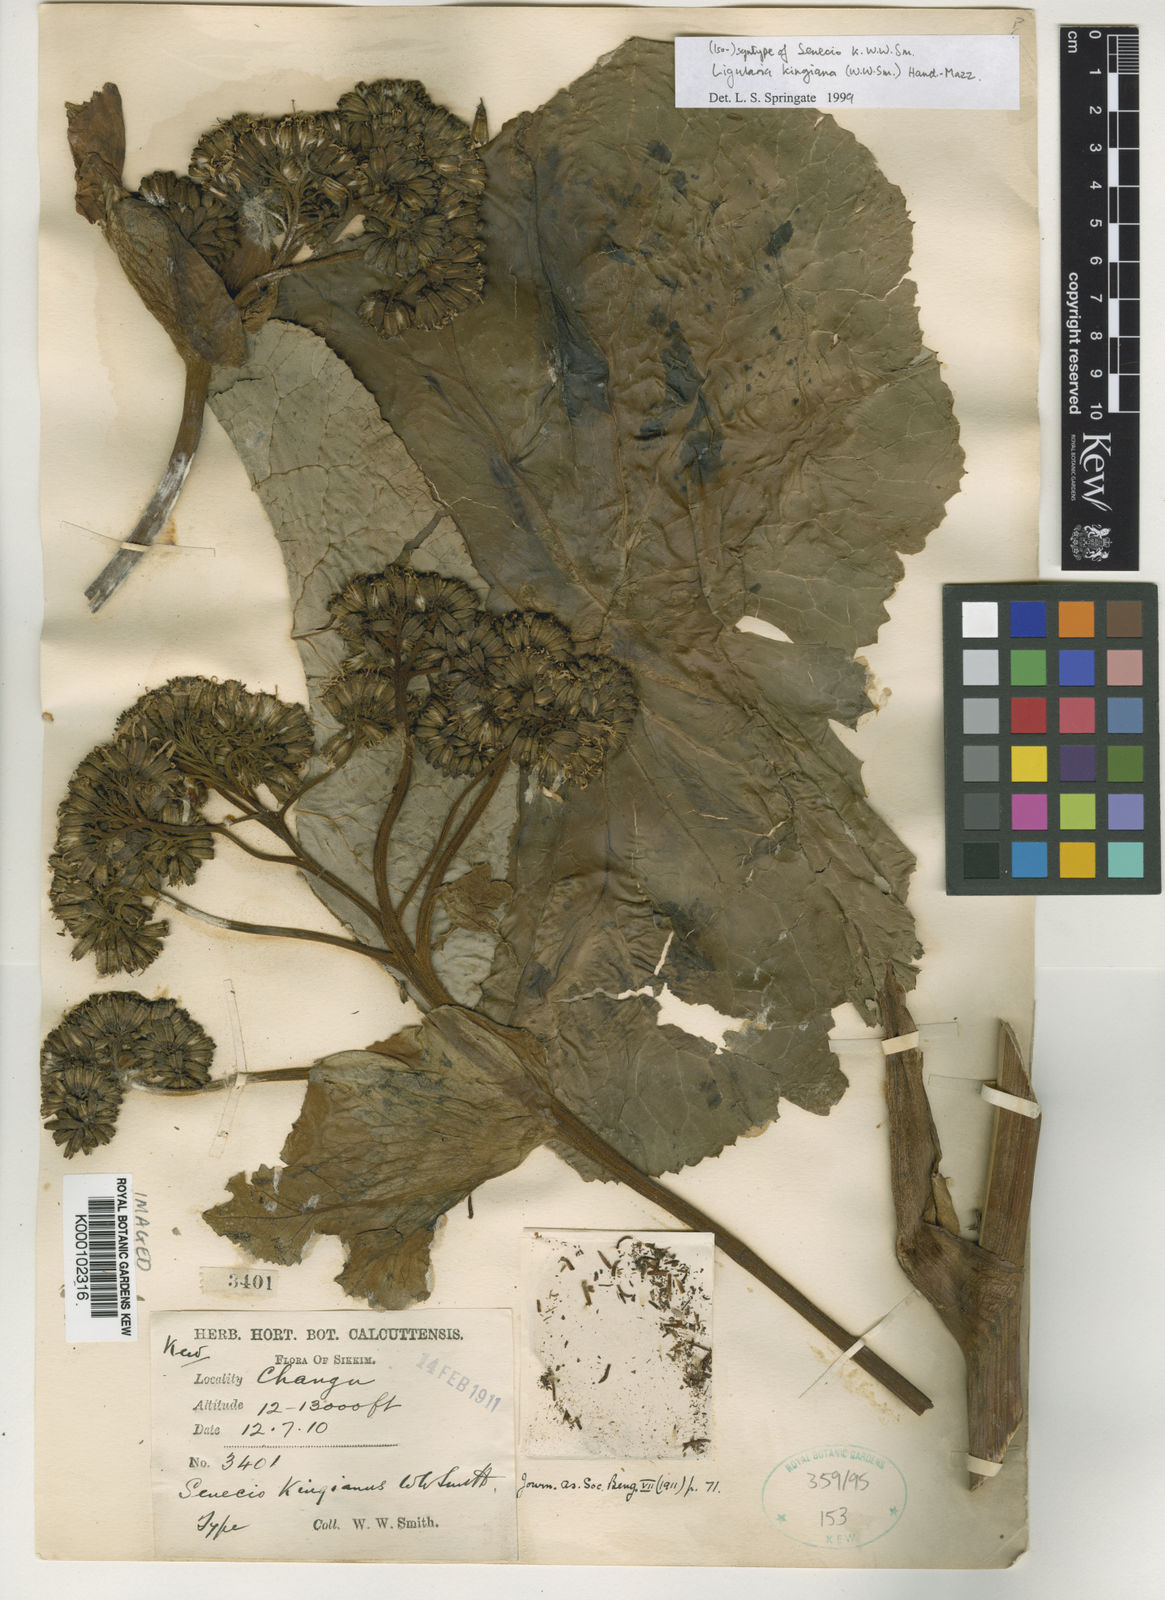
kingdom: Plantae
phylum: Tracheophyta
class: Magnoliopsida
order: Asterales
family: Asteraceae
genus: Ligularia
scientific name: Ligularia kingiana
